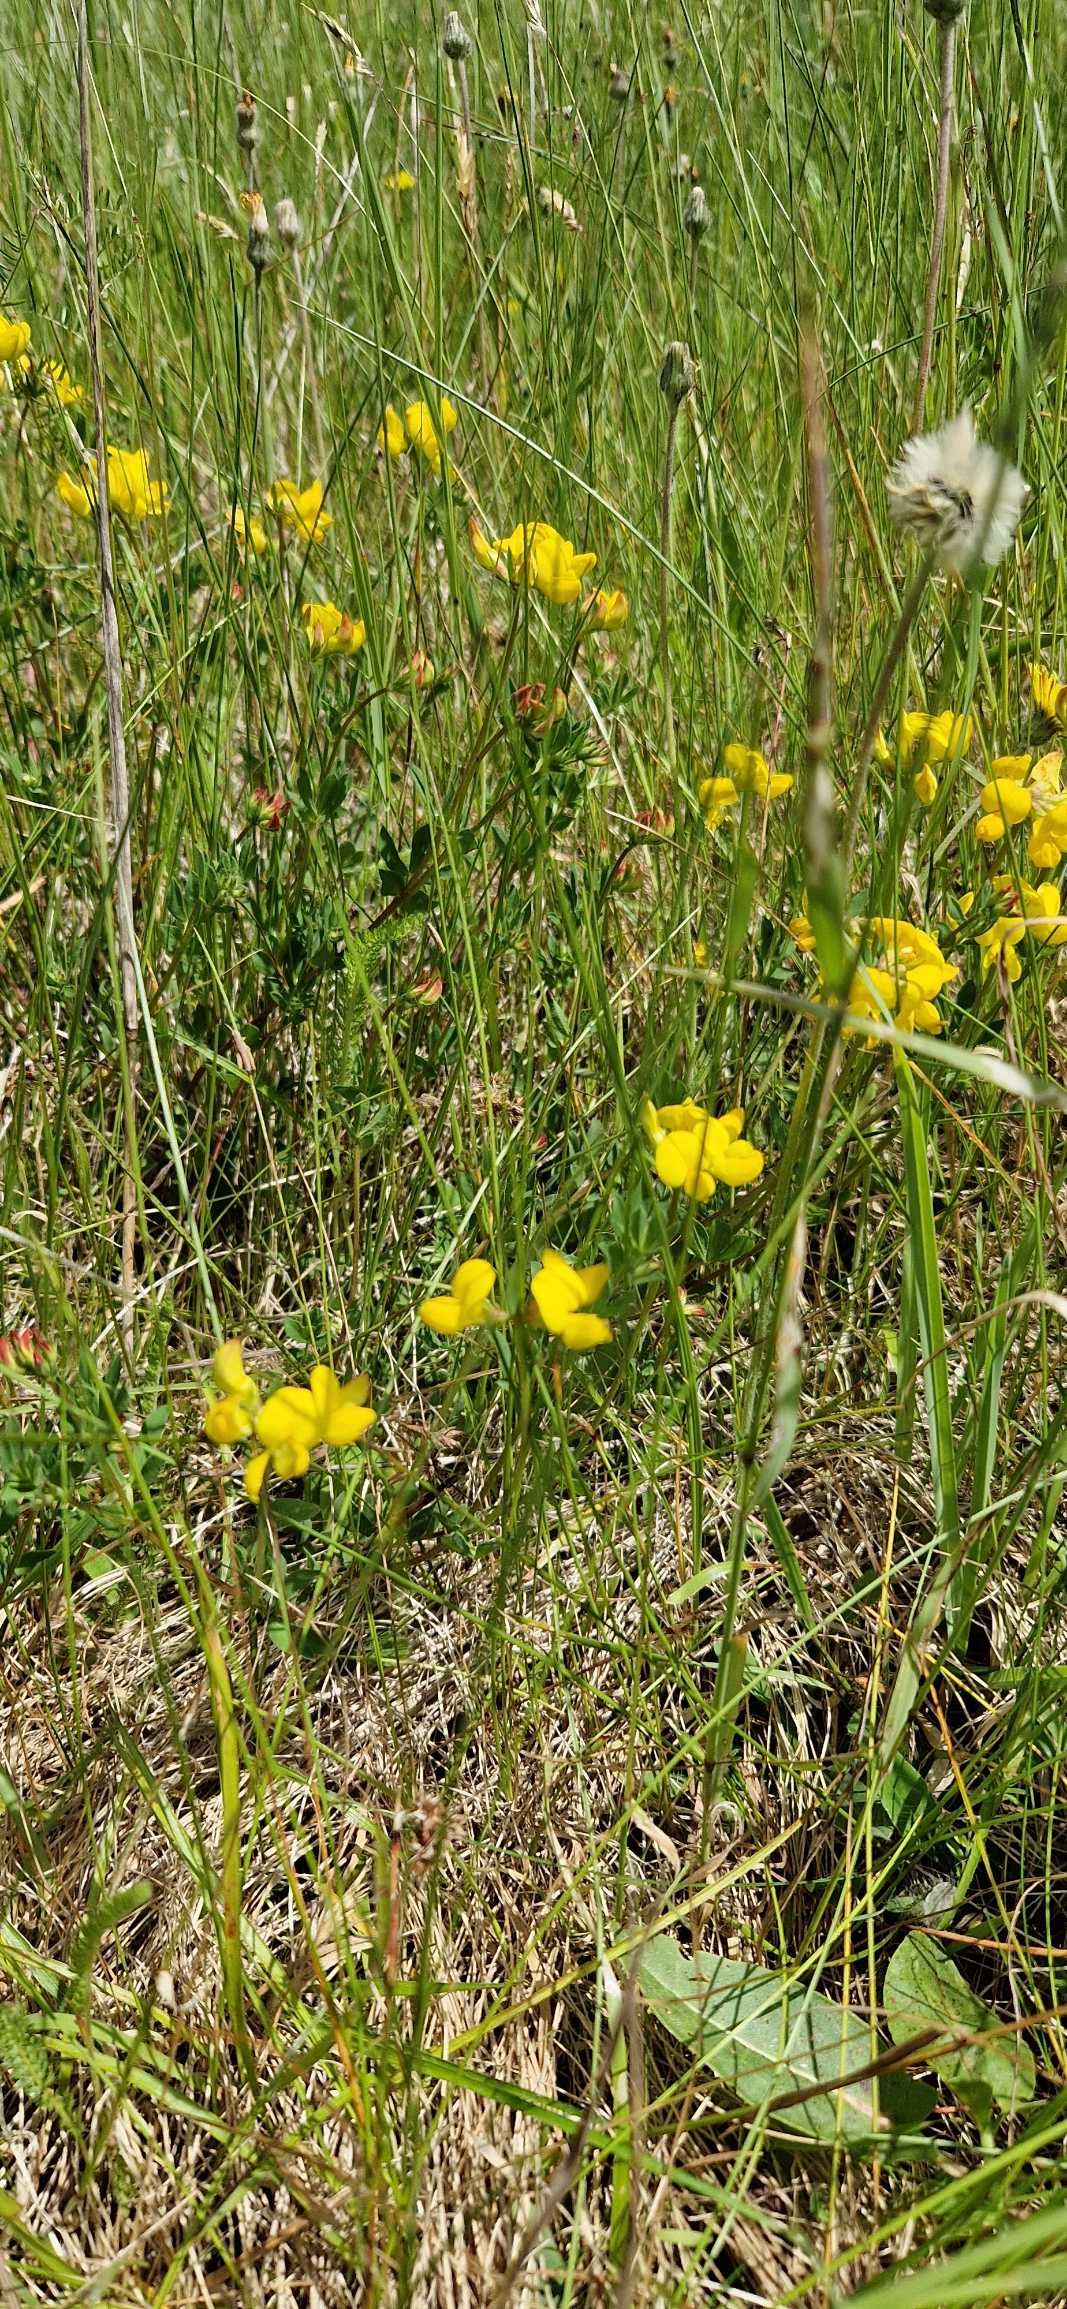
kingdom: Plantae
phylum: Tracheophyta
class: Magnoliopsida
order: Fabales
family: Fabaceae
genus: Lotus
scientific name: Lotus corniculatus
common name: Almindelig kællingetand
